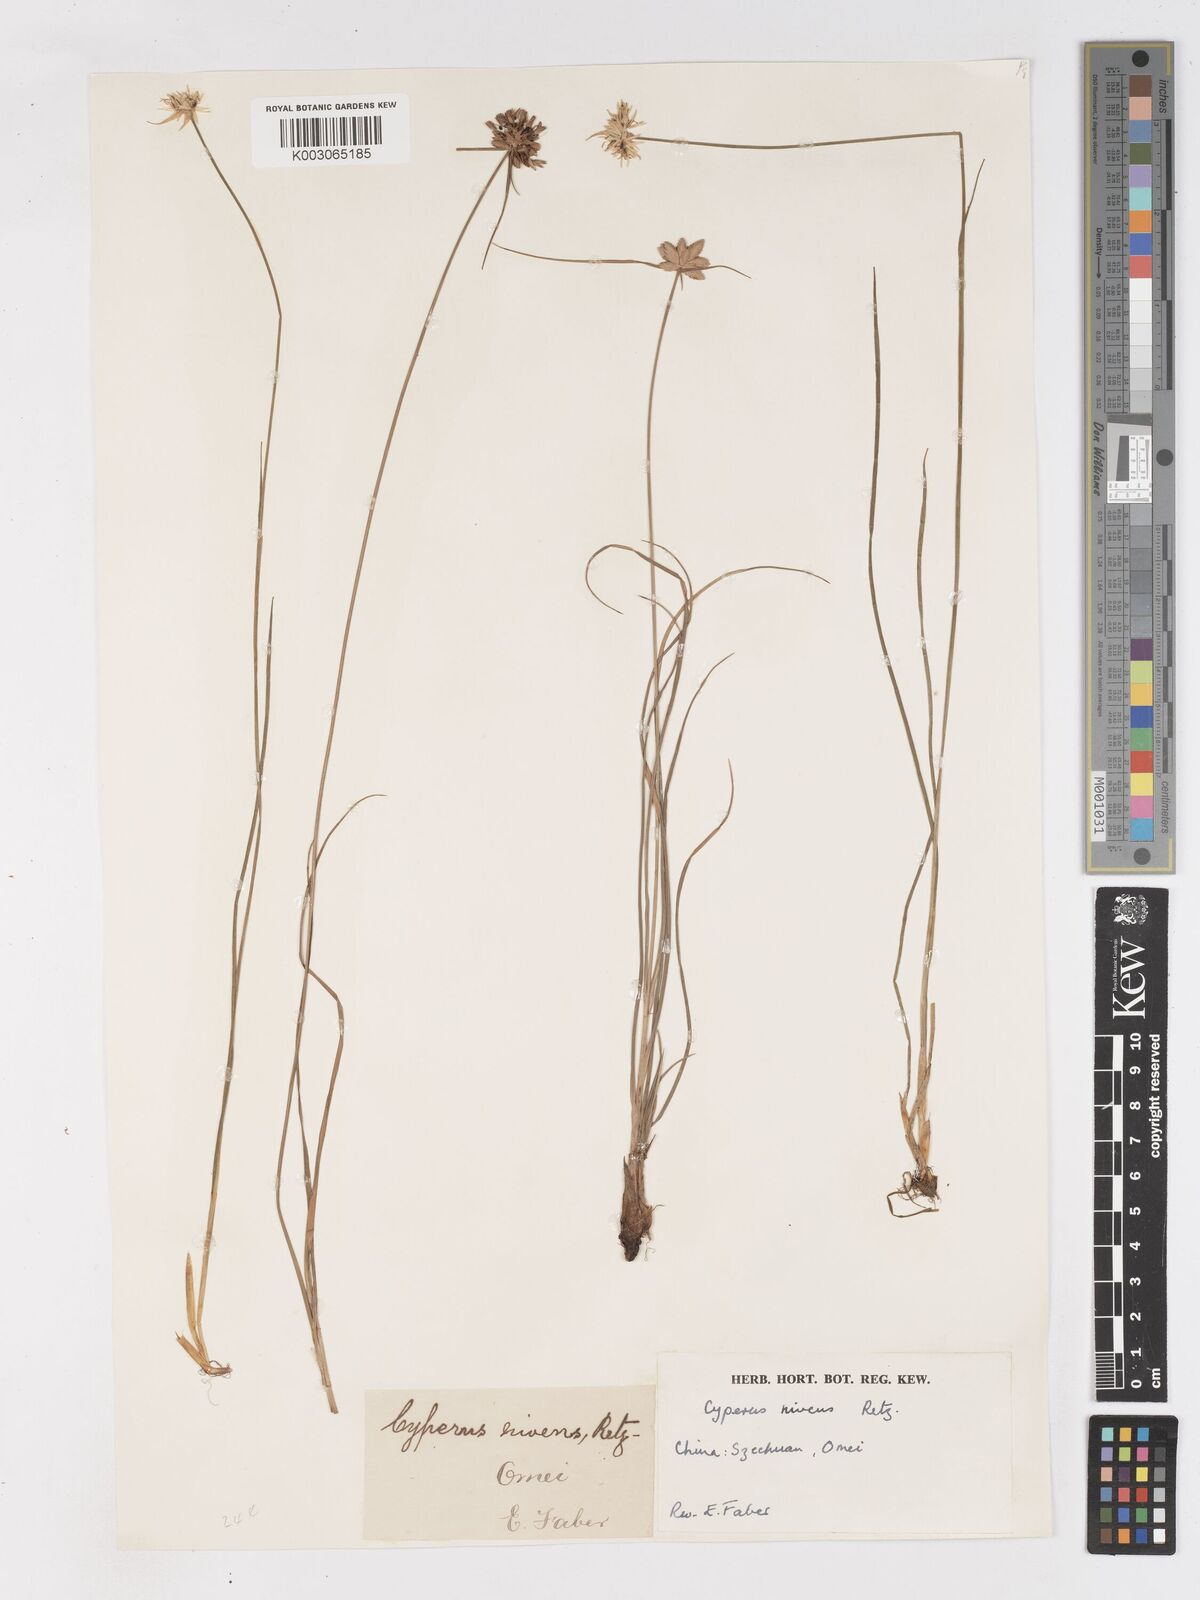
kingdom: Plantae
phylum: Tracheophyta
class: Liliopsida
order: Poales
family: Cyperaceae
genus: Cyperus
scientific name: Cyperus niveus
